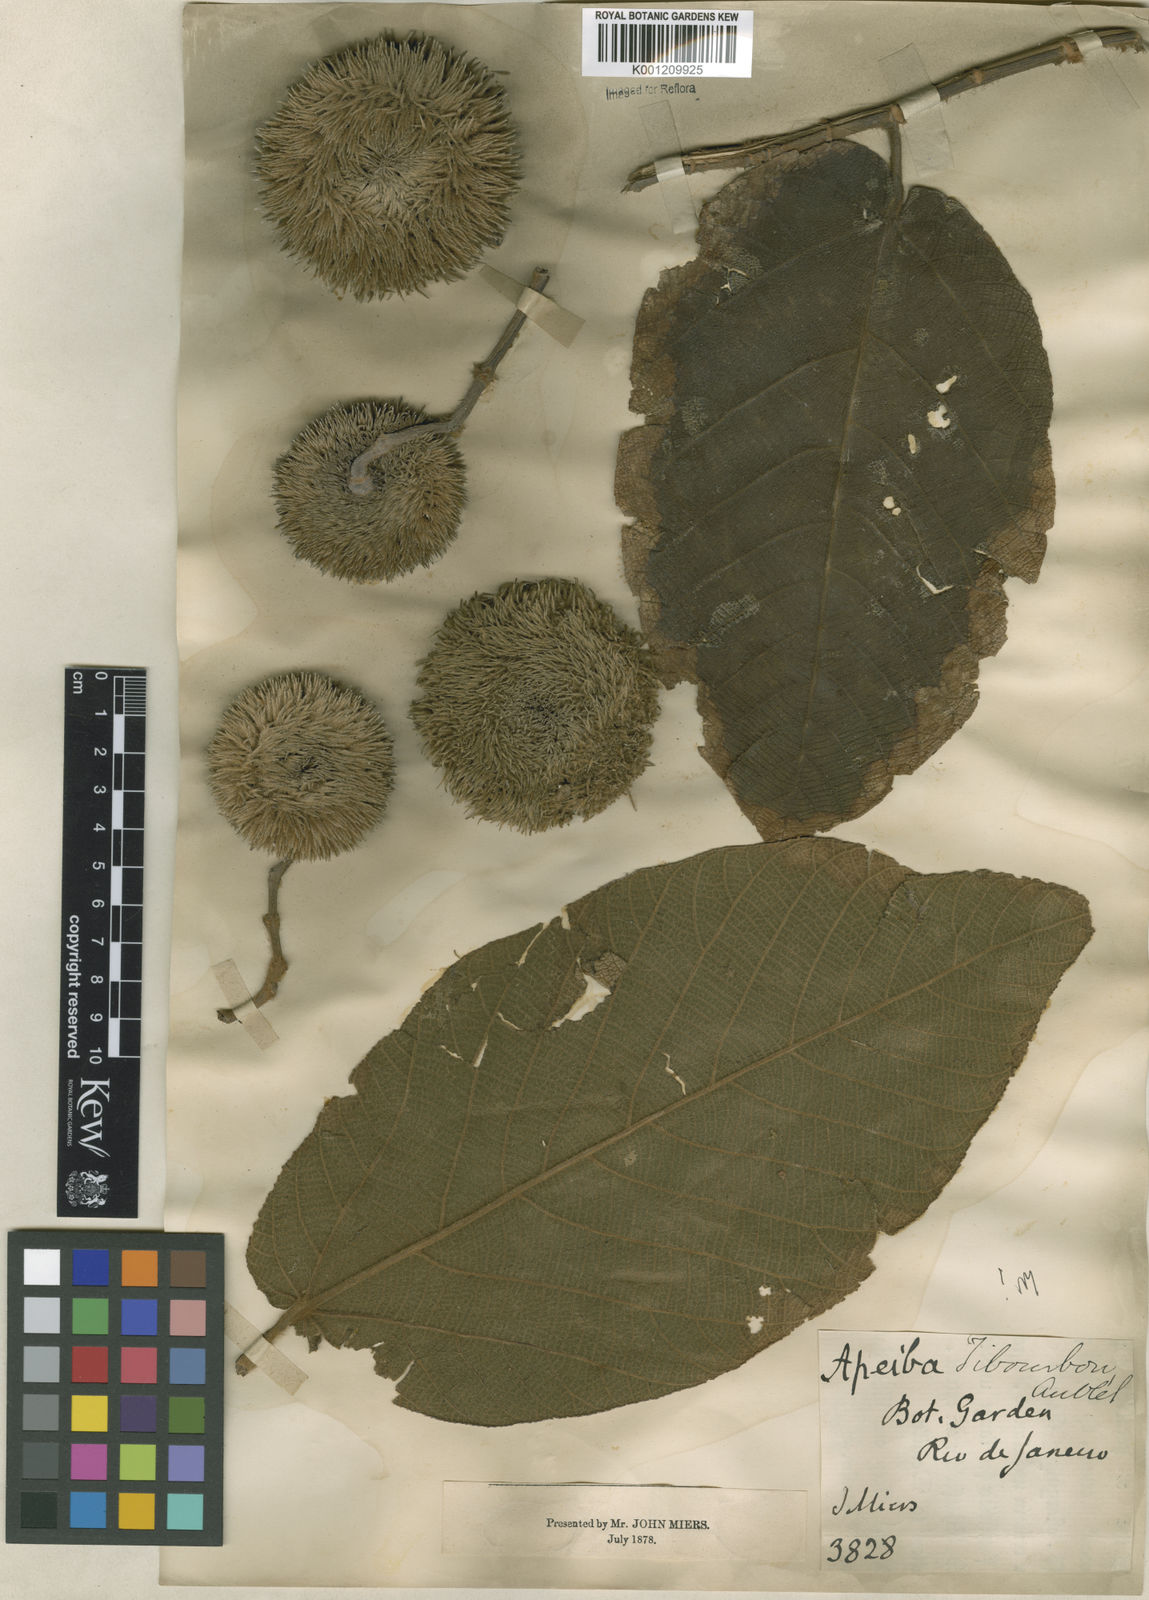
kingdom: Plantae
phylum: Tracheophyta
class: Magnoliopsida
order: Malvales
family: Malvaceae
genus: Apeiba
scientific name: Apeiba tibourbou
